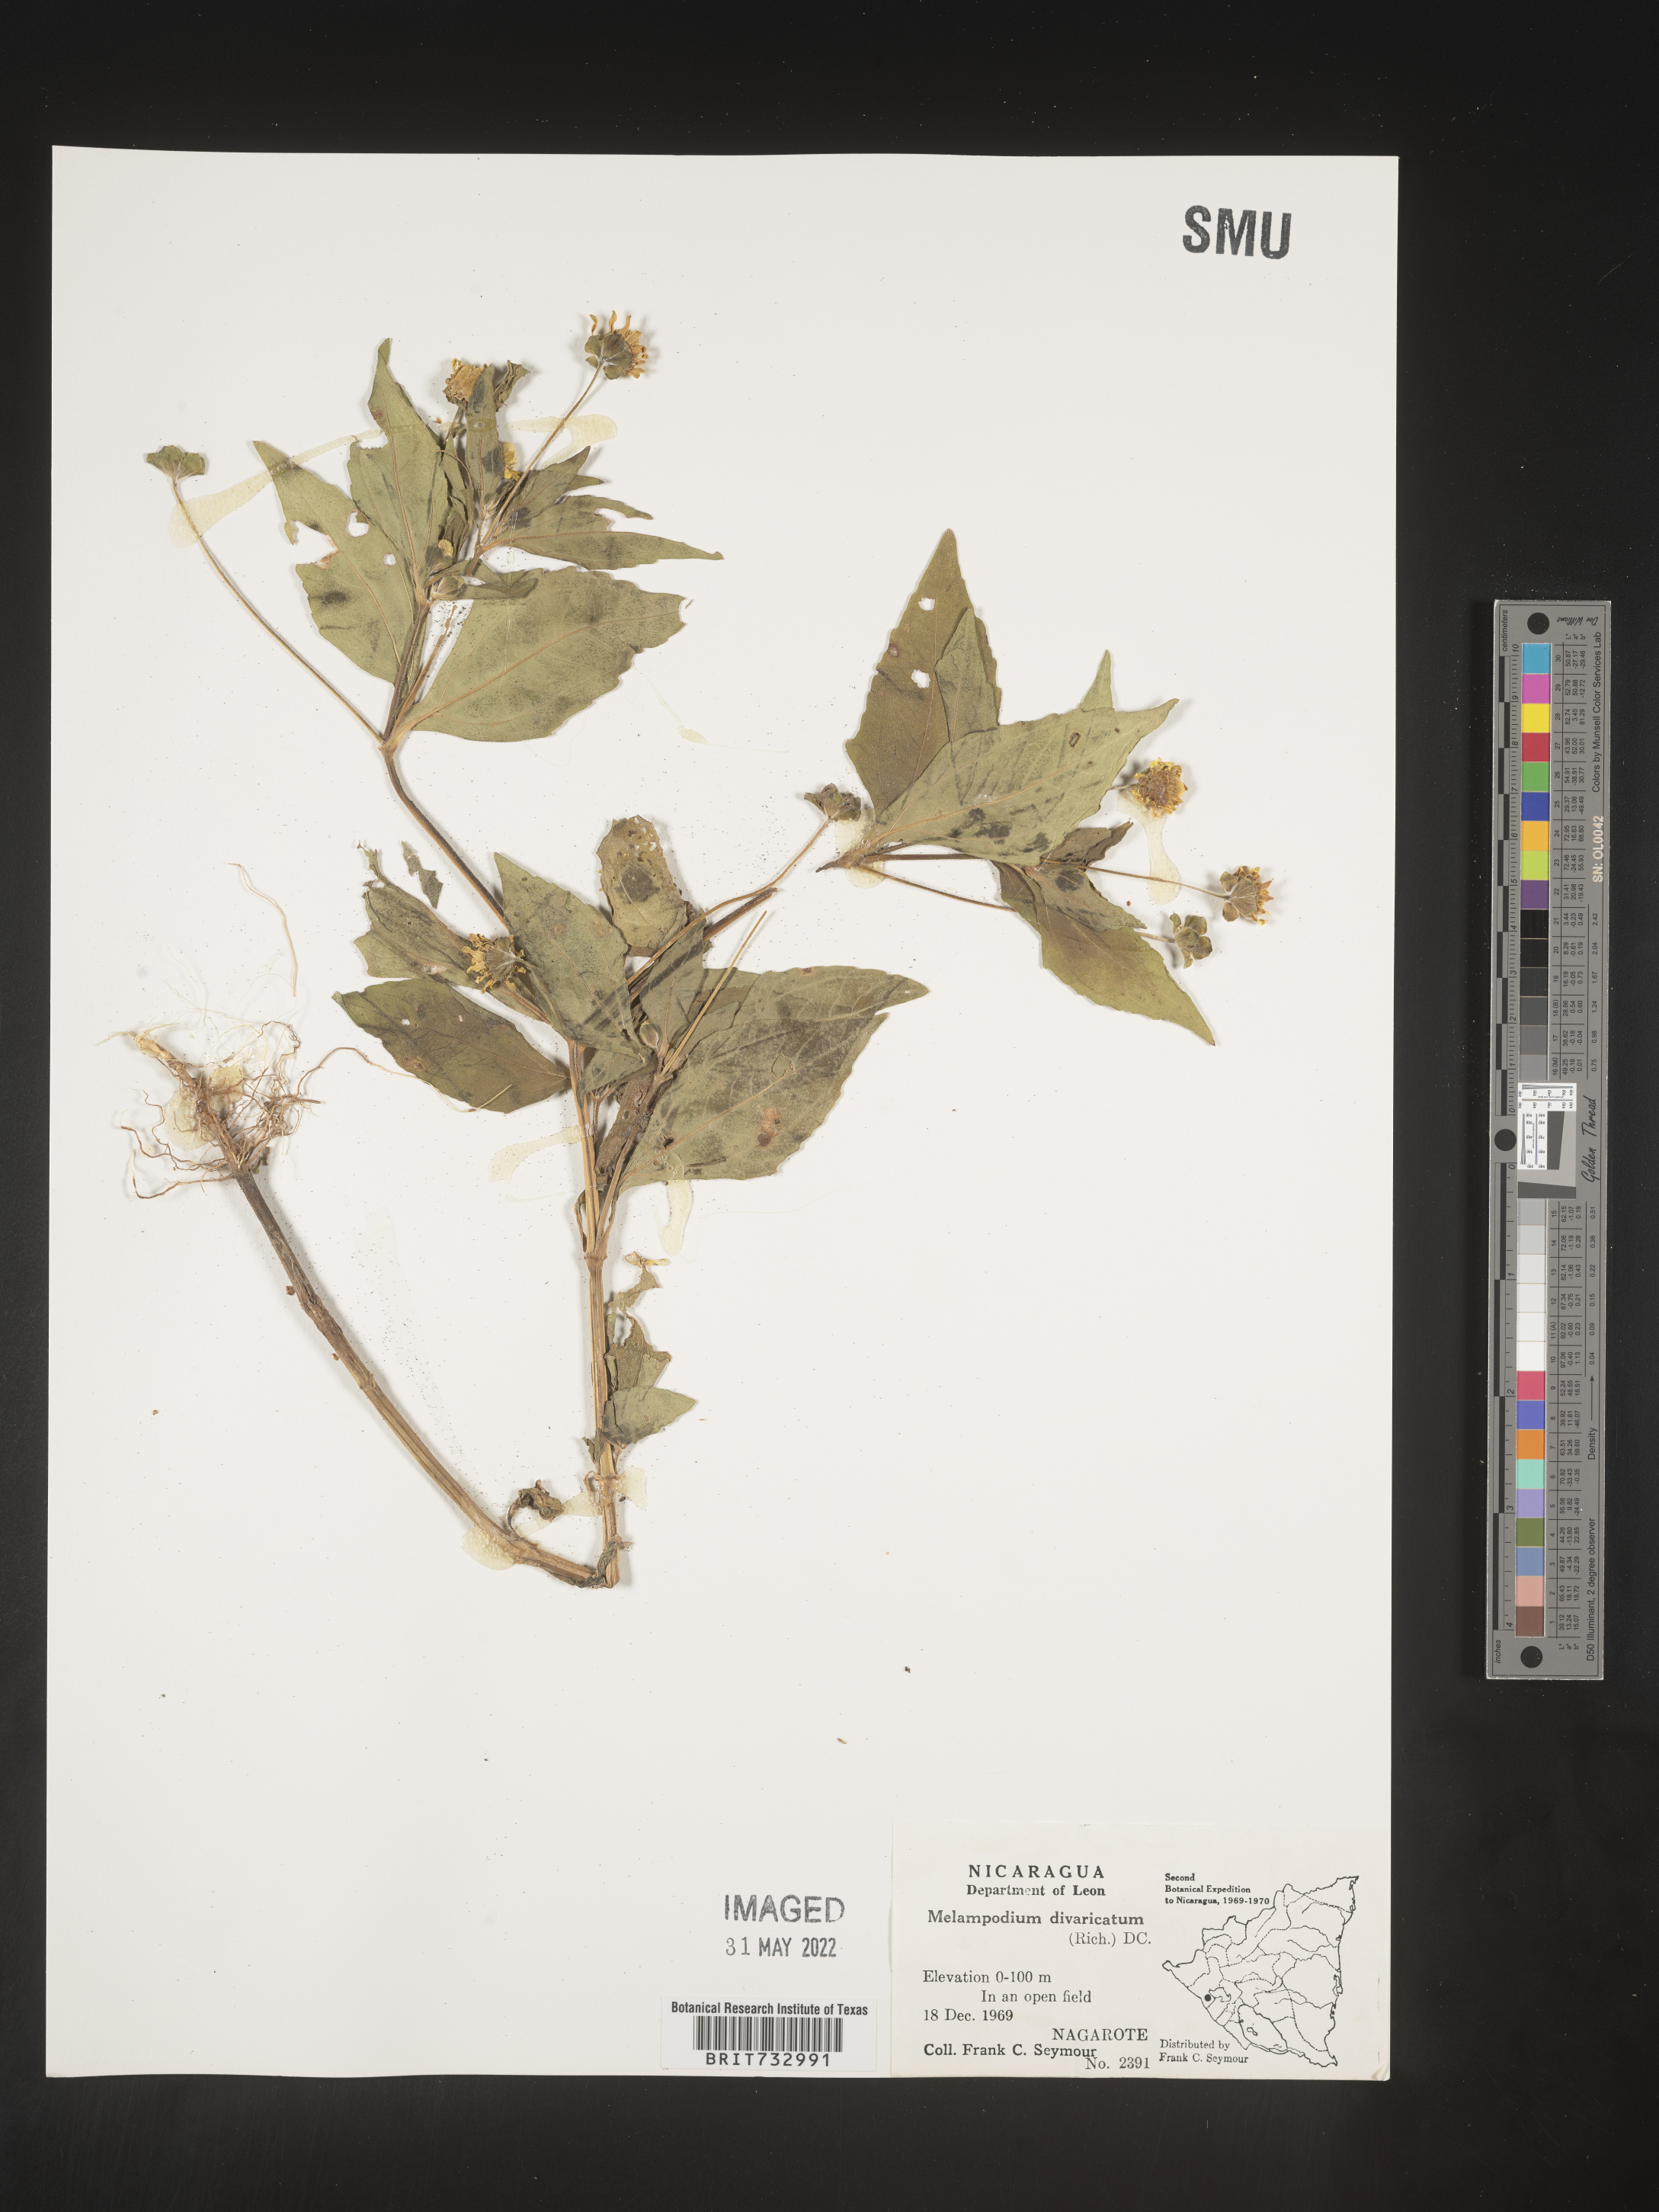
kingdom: Plantae
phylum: Tracheophyta
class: Magnoliopsida
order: Asterales
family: Asteraceae
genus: Melampodium
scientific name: Melampodium
